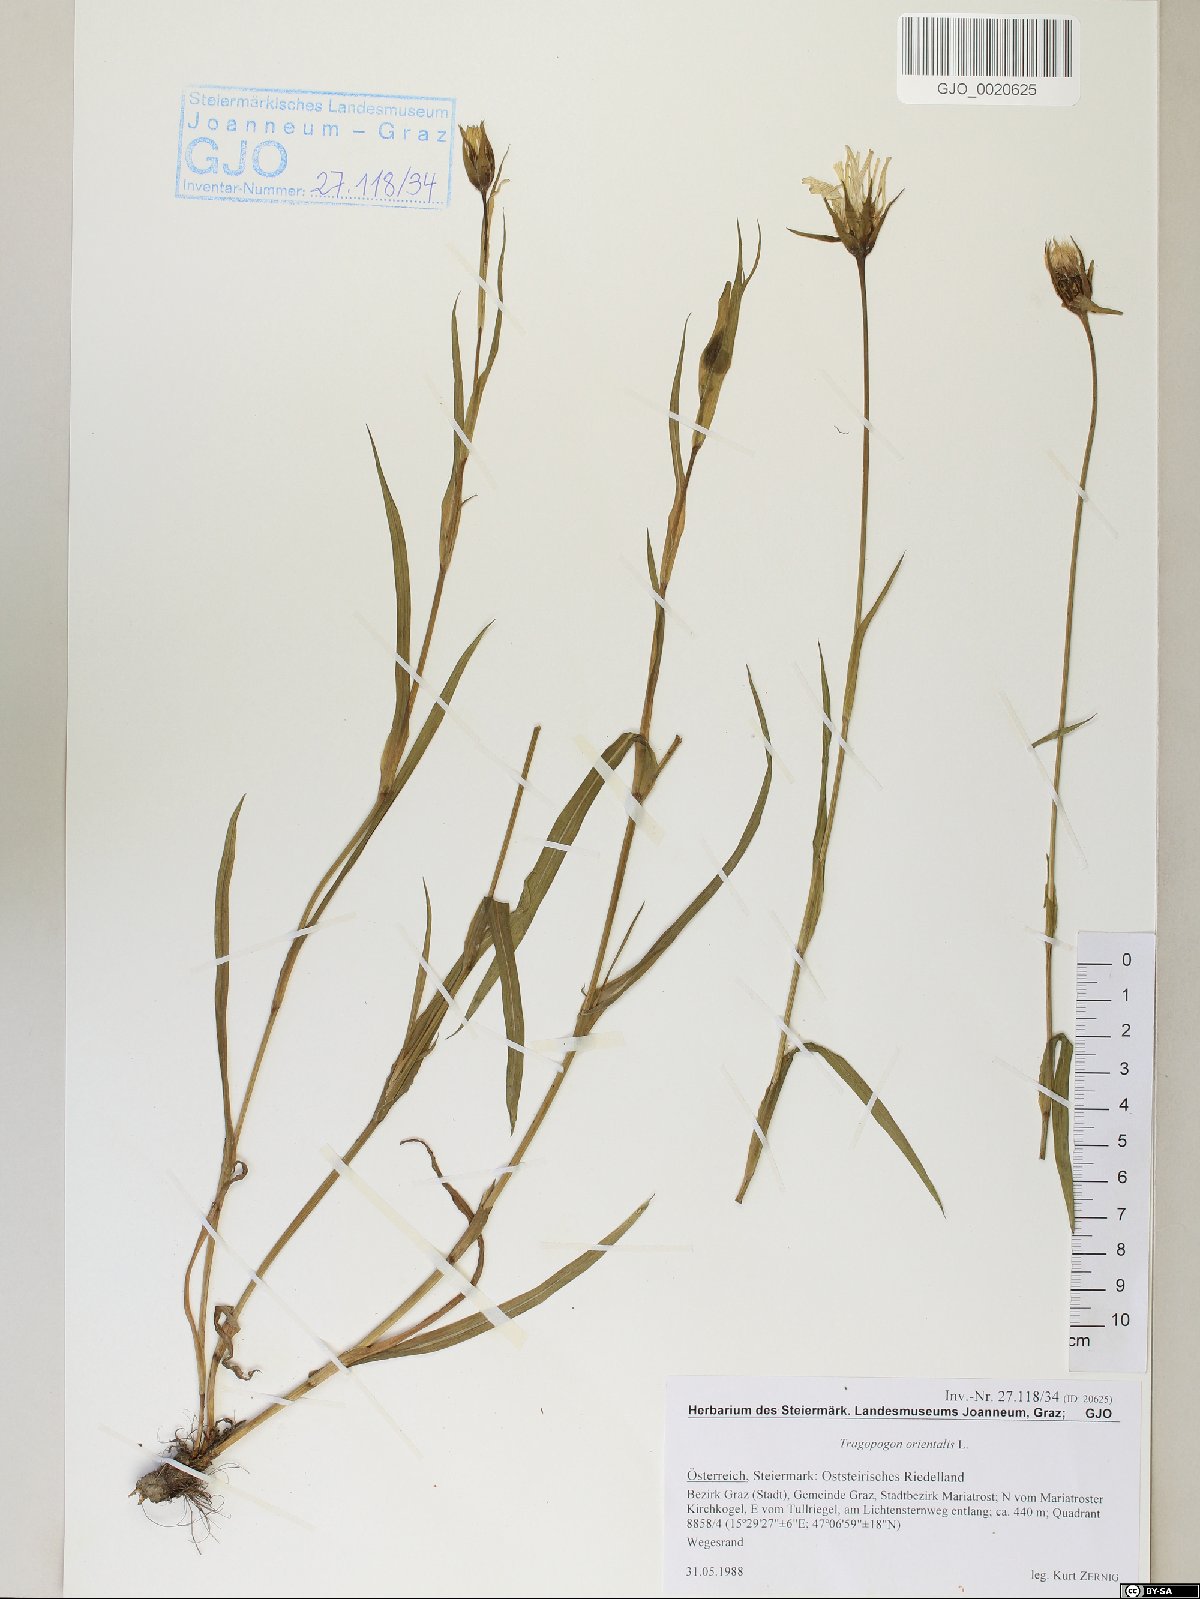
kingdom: Plantae
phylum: Tracheophyta
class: Magnoliopsida
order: Asterales
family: Asteraceae
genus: Tragopogon
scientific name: Tragopogon orientalis
